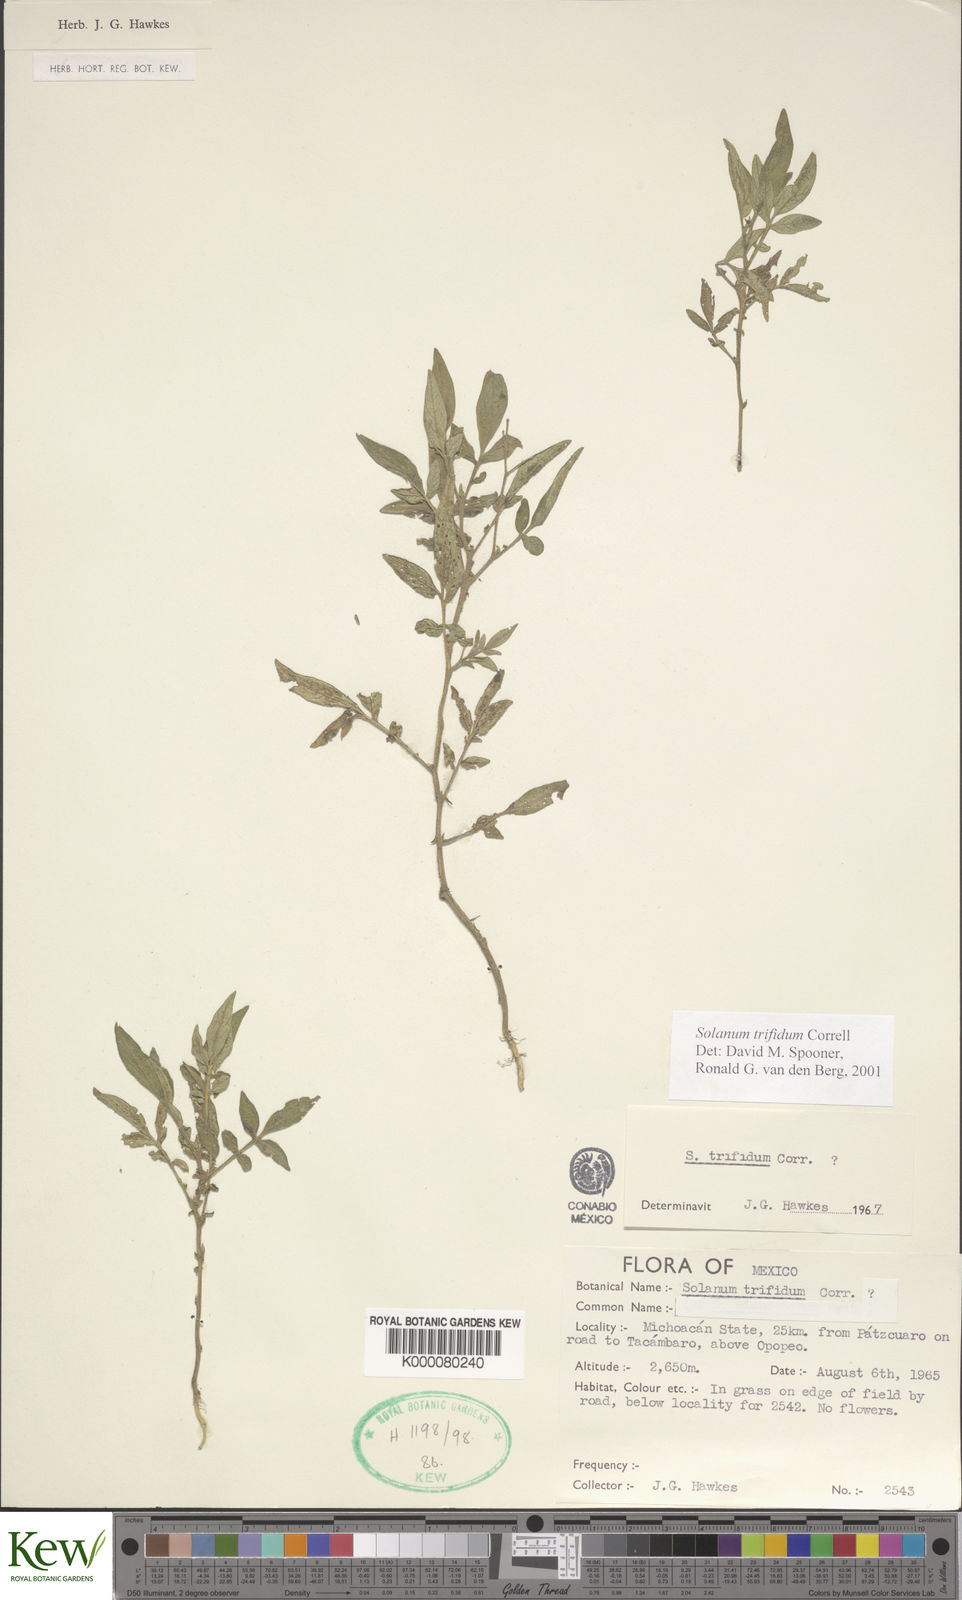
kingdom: Plantae
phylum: Tracheophyta
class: Magnoliopsida
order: Solanales
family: Solanaceae
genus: Solanum
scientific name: Solanum trifidum
